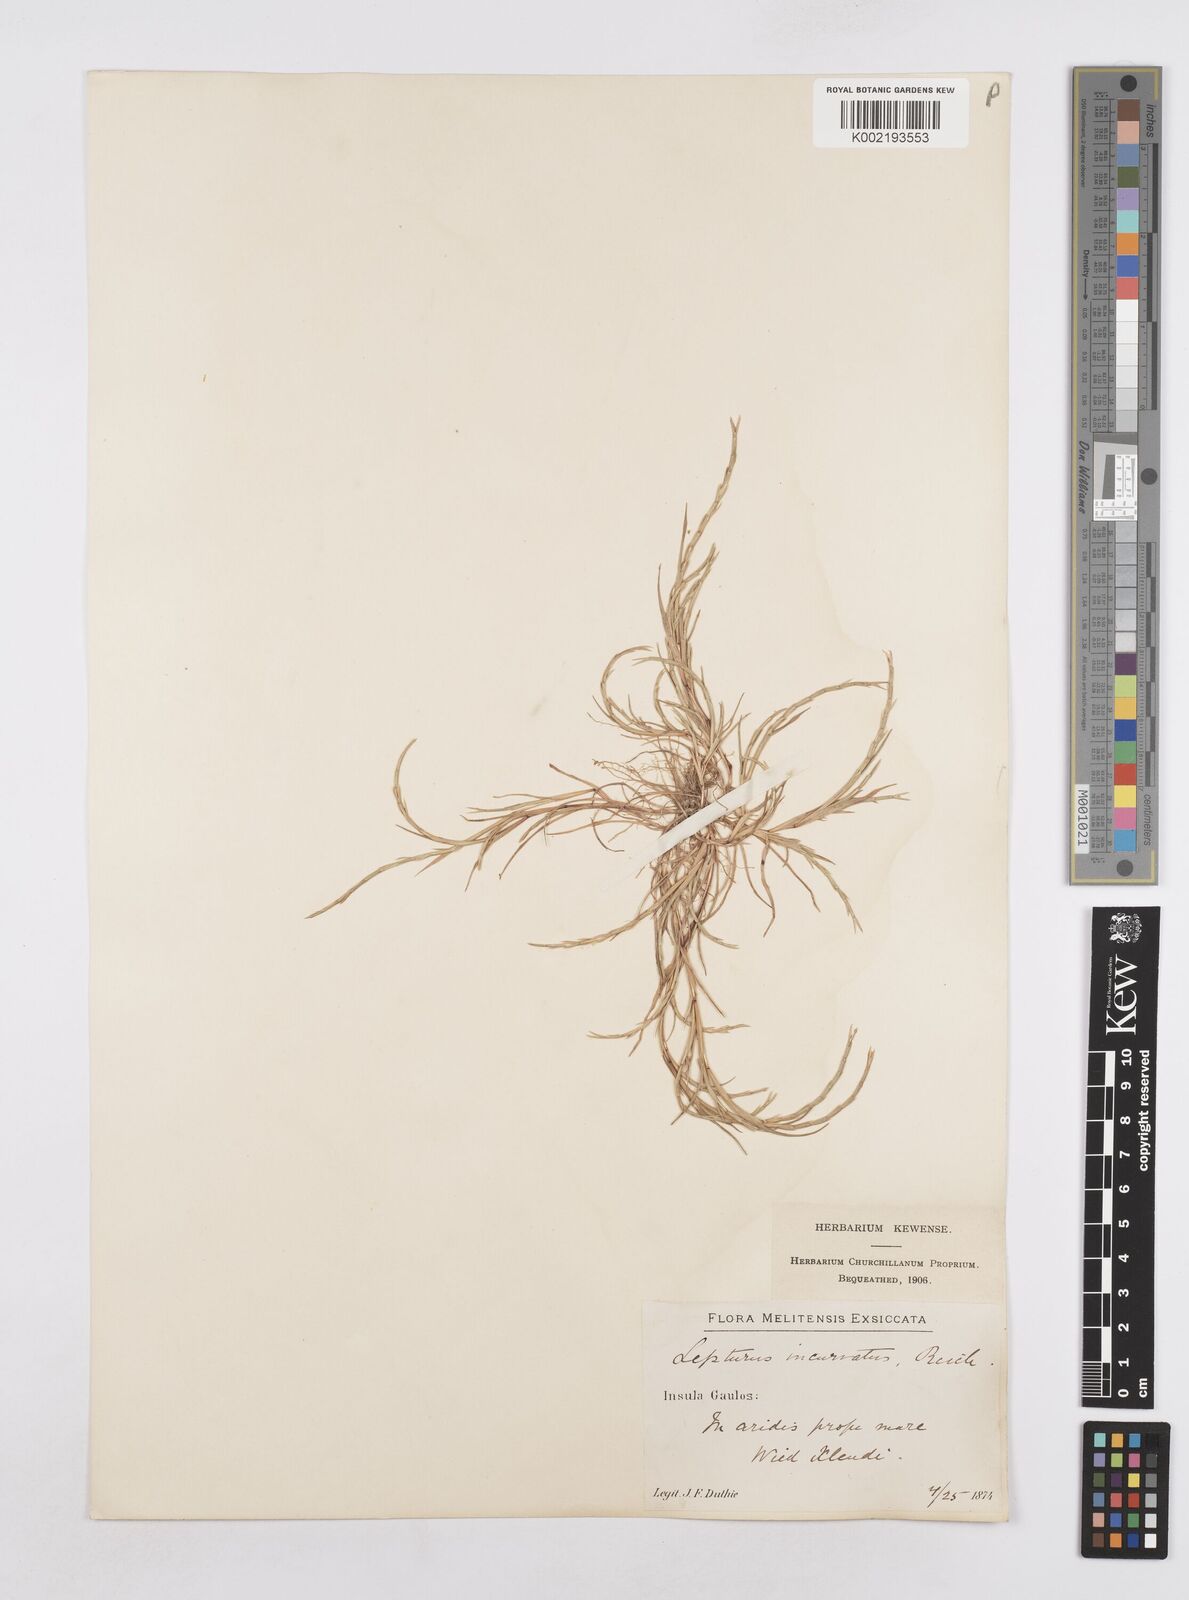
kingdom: Plantae
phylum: Tracheophyta
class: Liliopsida
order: Poales
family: Poaceae
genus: Parapholis
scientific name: Parapholis incurva
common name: Curved sicklegrass
